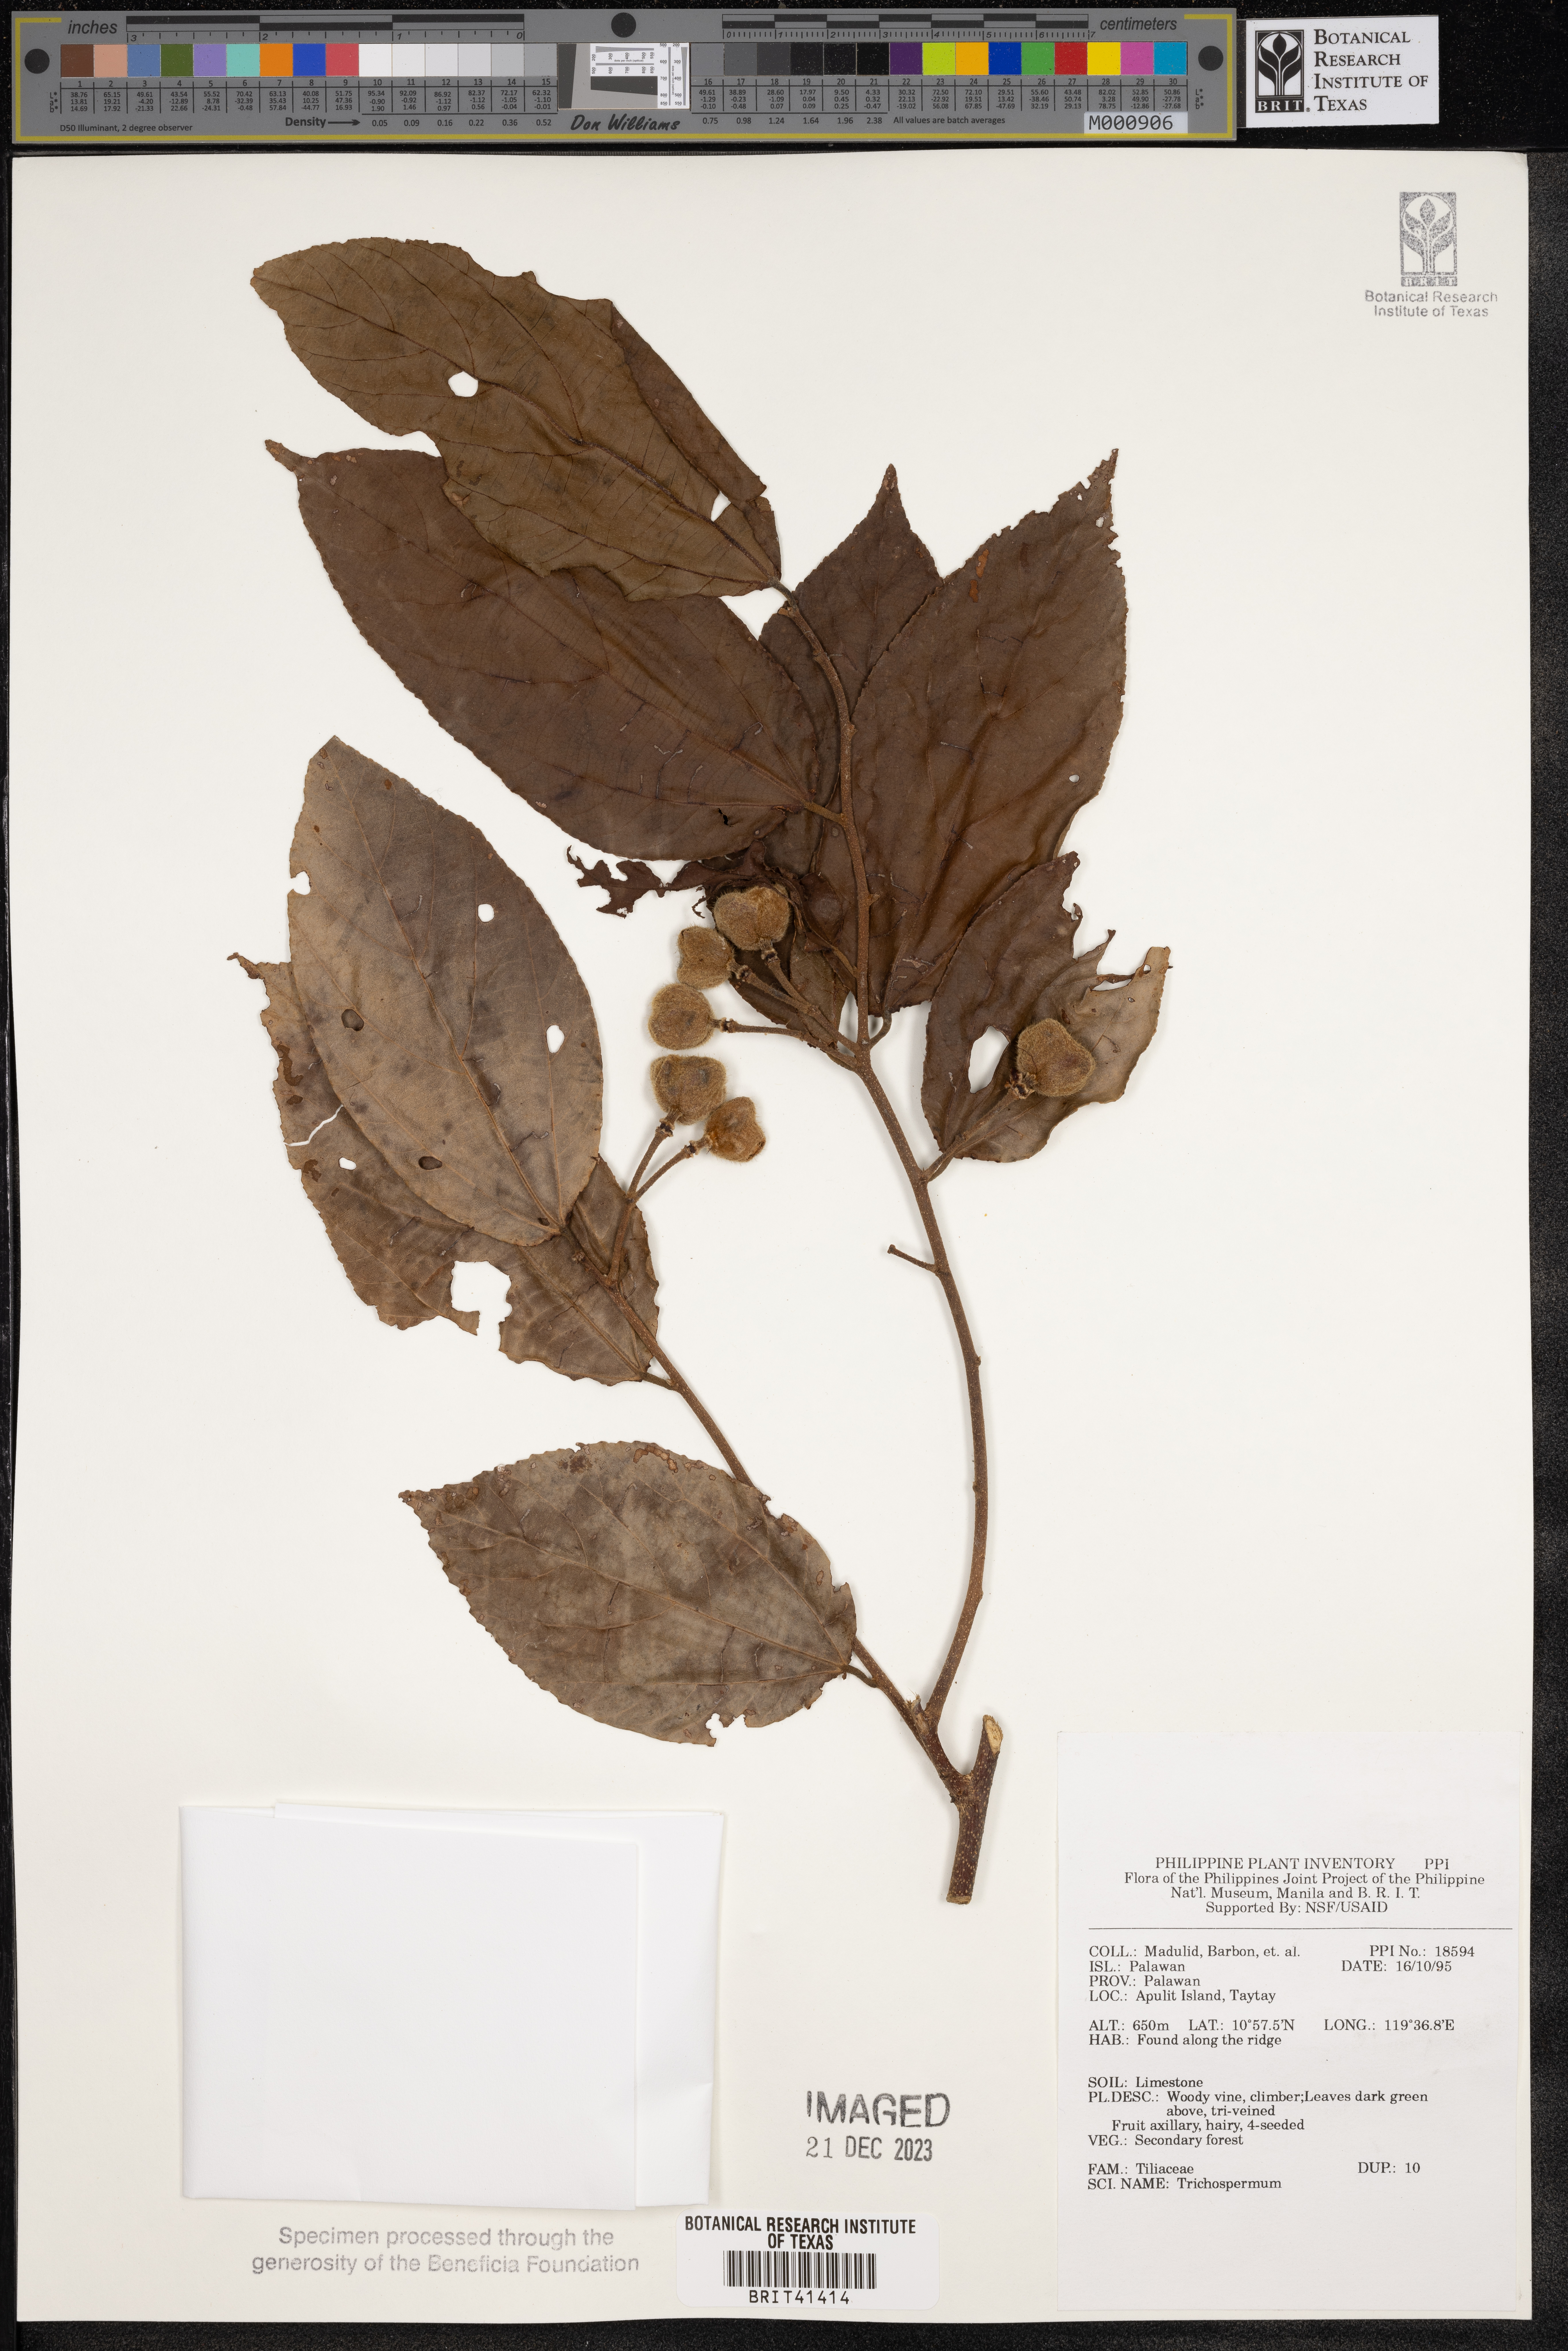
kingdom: Plantae
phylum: Tracheophyta
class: Magnoliopsida
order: Malvales
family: Malvaceae
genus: Trichospermum
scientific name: Trichospermum
